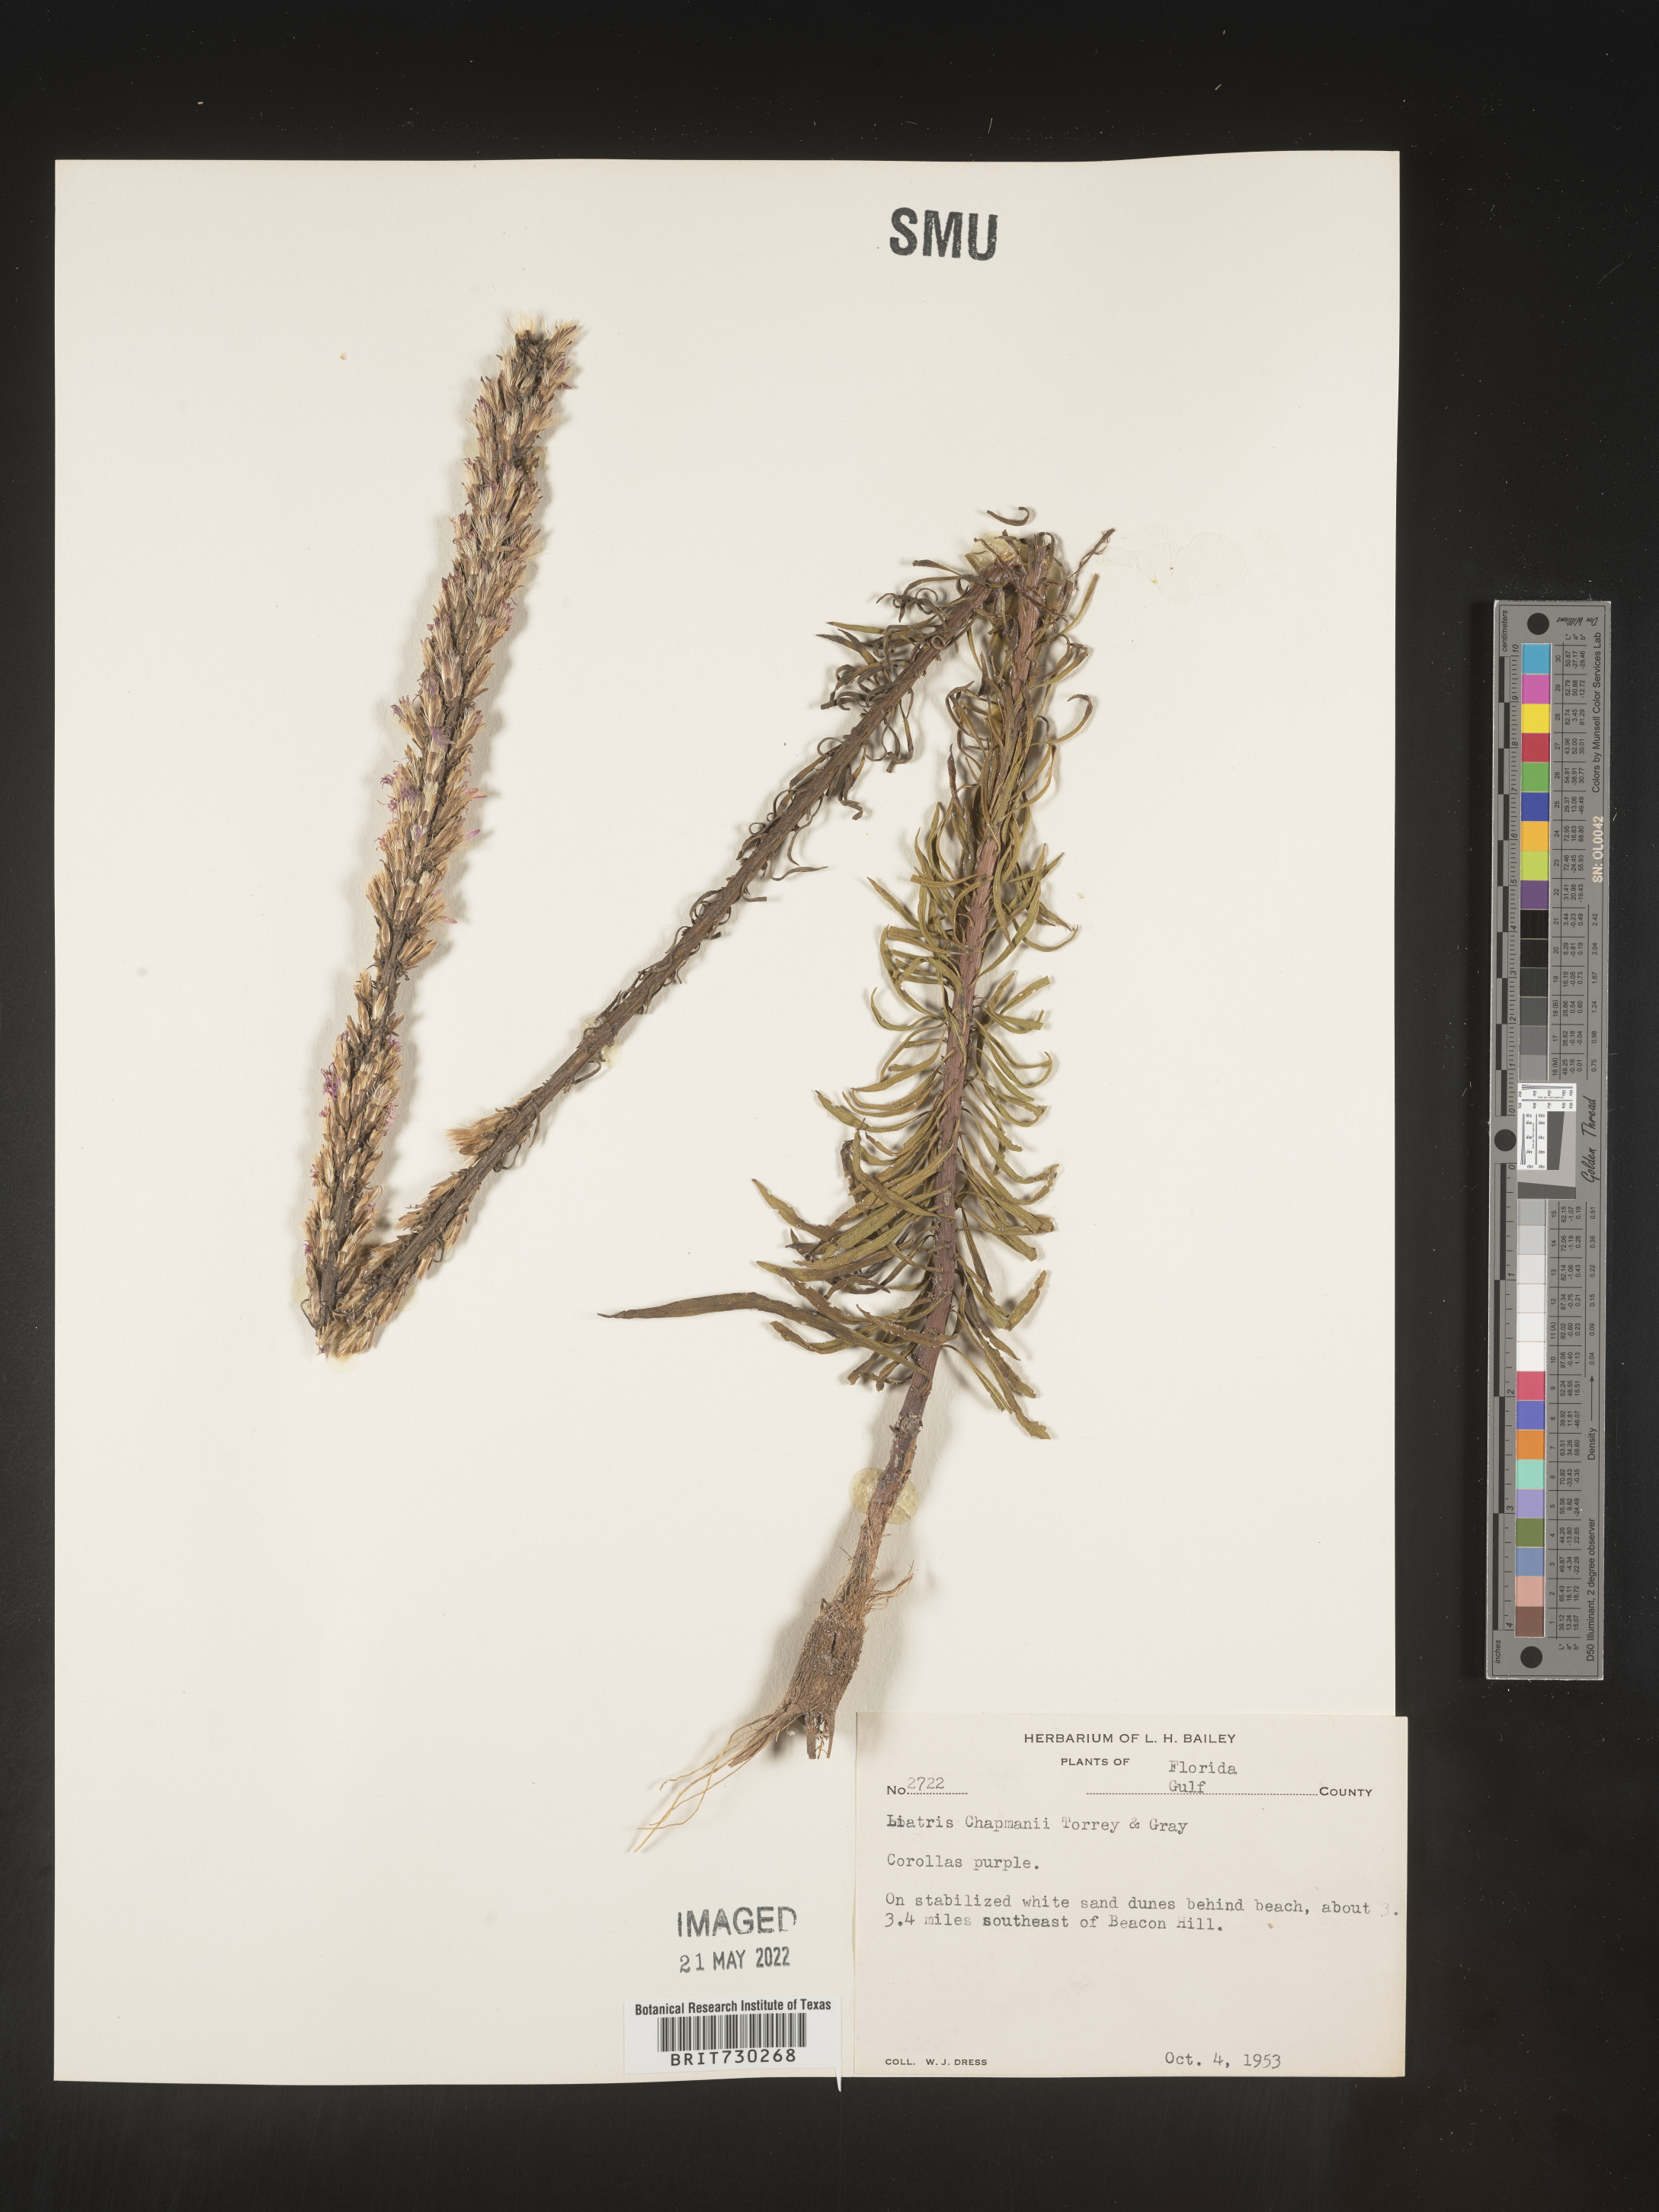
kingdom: Plantae
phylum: Tracheophyta
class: Magnoliopsida
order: Asterales
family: Asteraceae
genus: Liatris
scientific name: Liatris chapmanii
